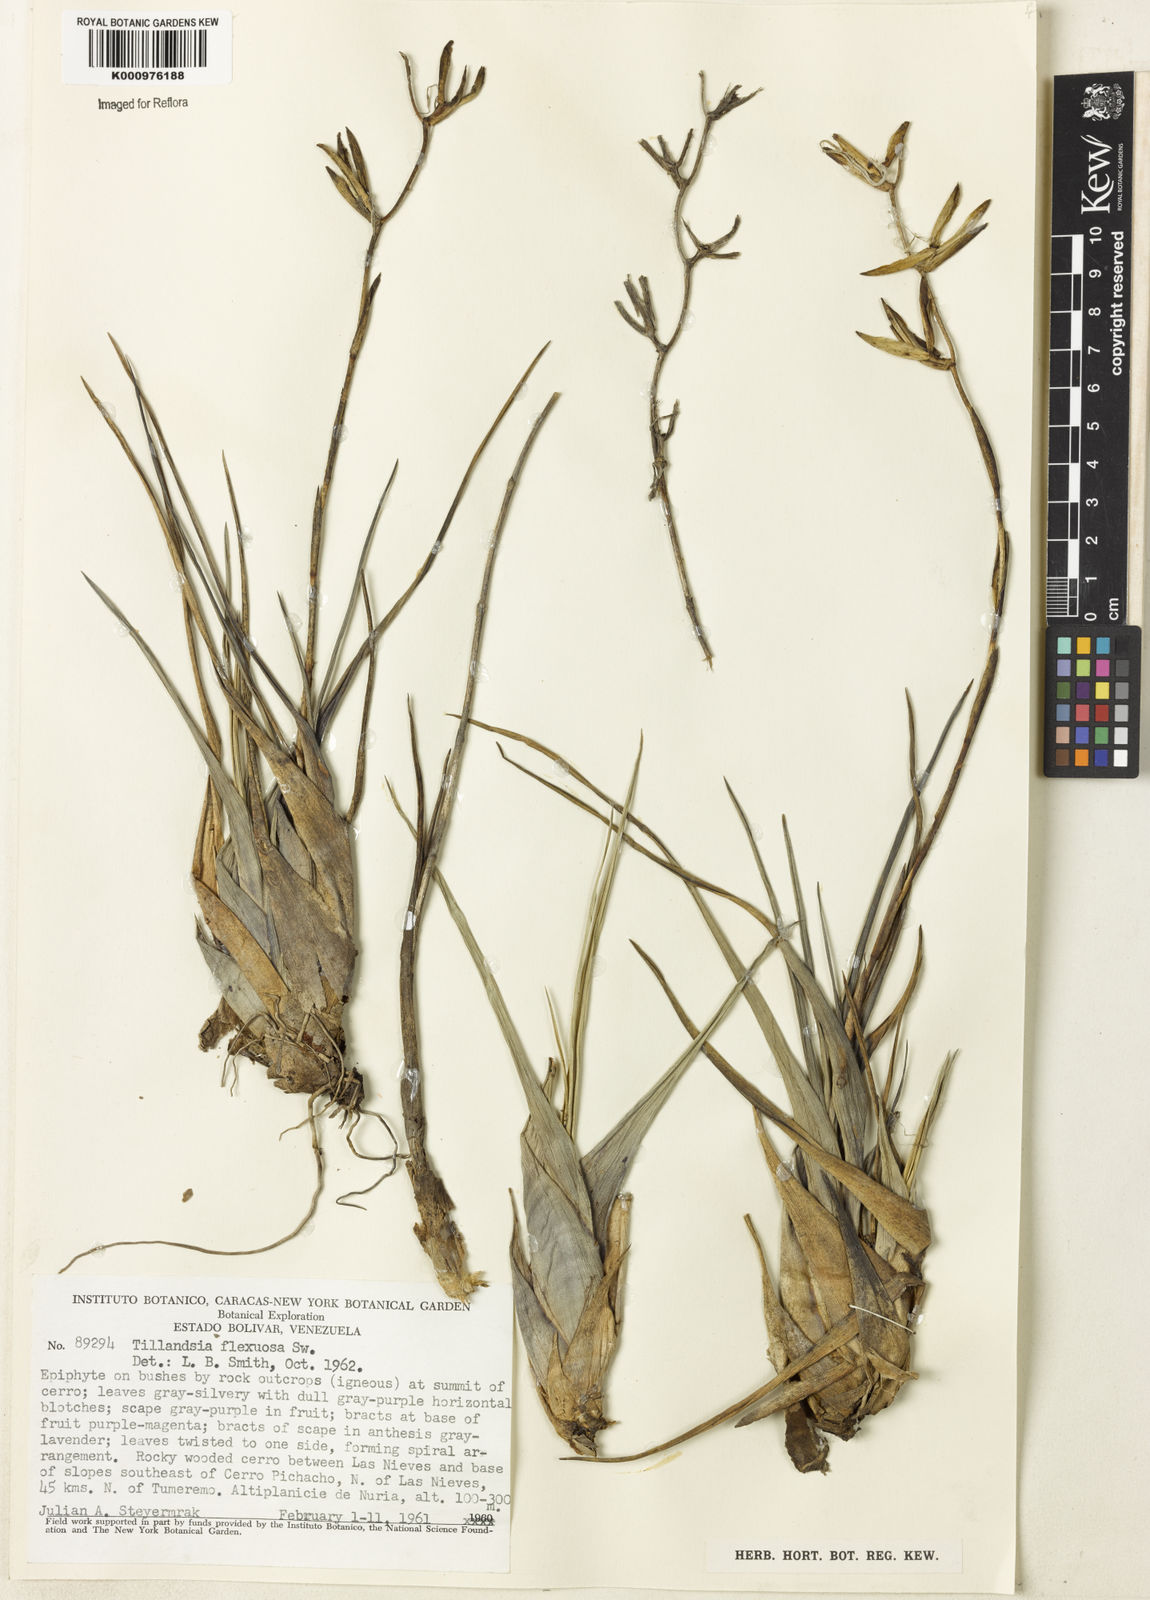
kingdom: Plantae
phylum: Tracheophyta
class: Liliopsida
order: Poales
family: Bromeliaceae
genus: Tillandsia
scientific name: Tillandsia flexuosa
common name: Banded airplant
